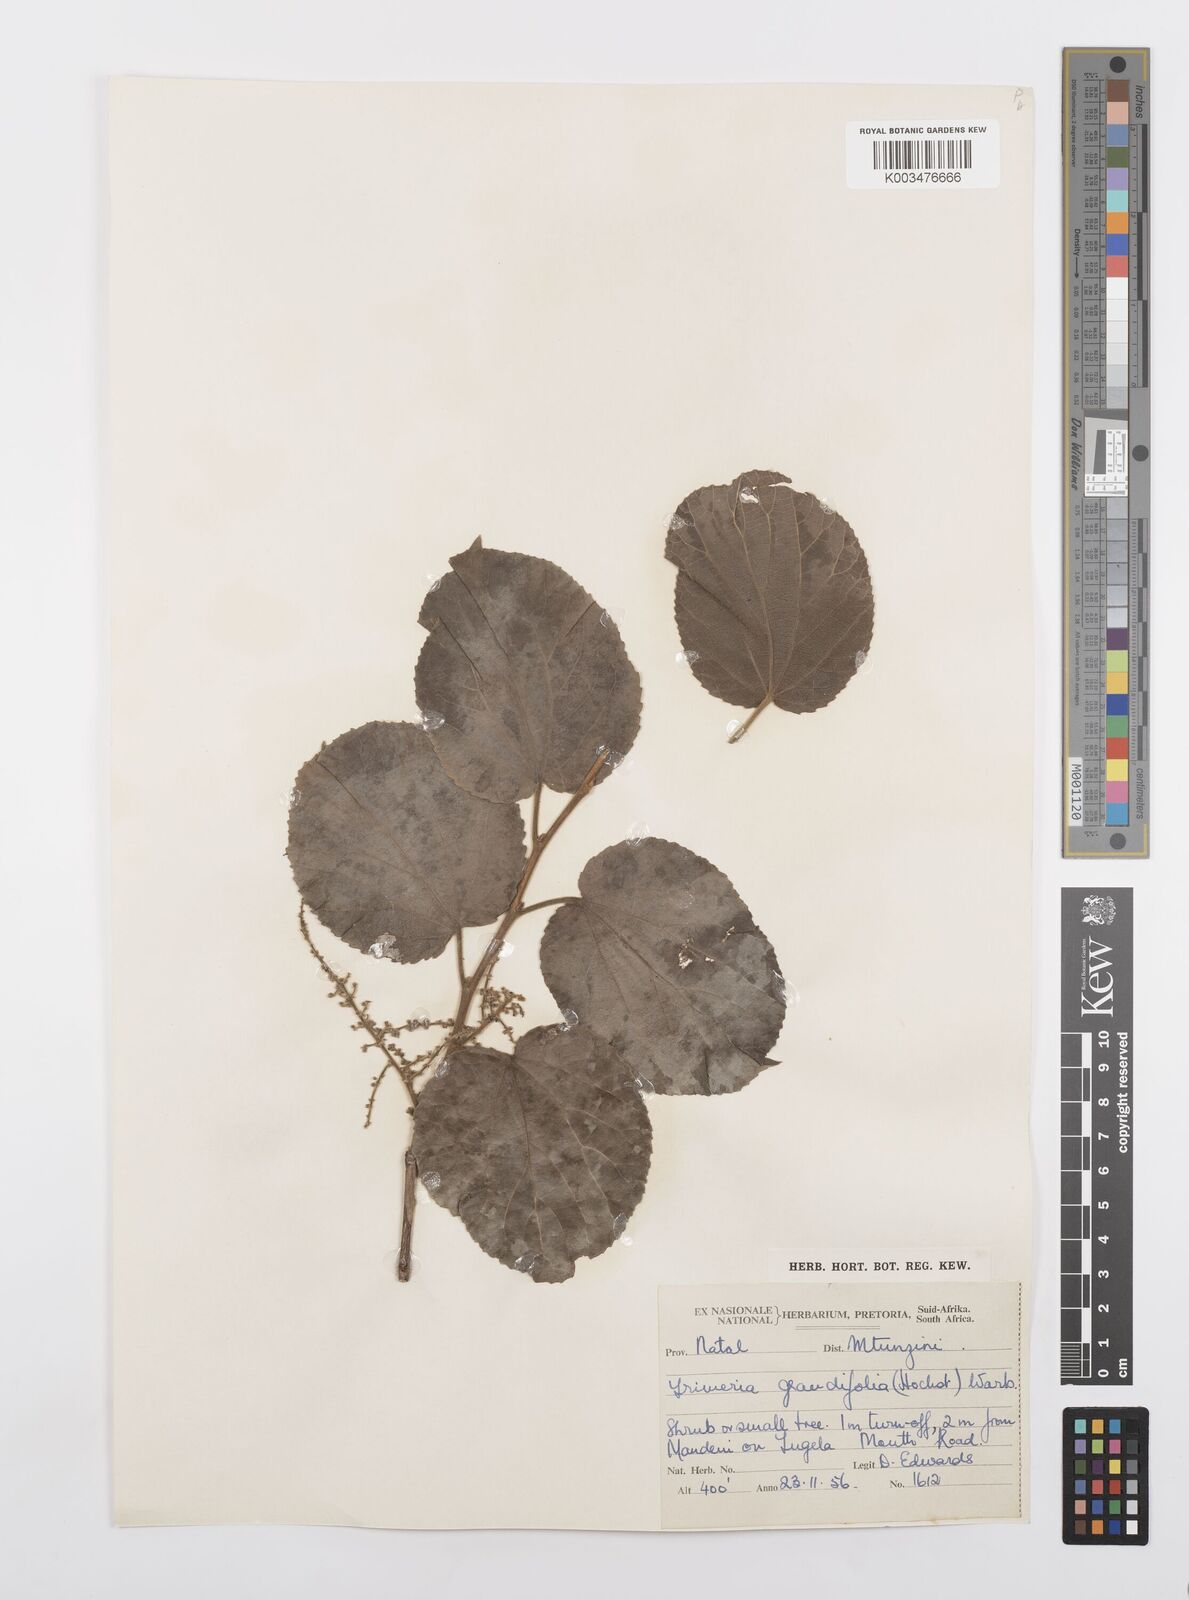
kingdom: Plantae
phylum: Tracheophyta
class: Magnoliopsida
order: Malpighiales
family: Salicaceae
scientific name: Salicaceae
